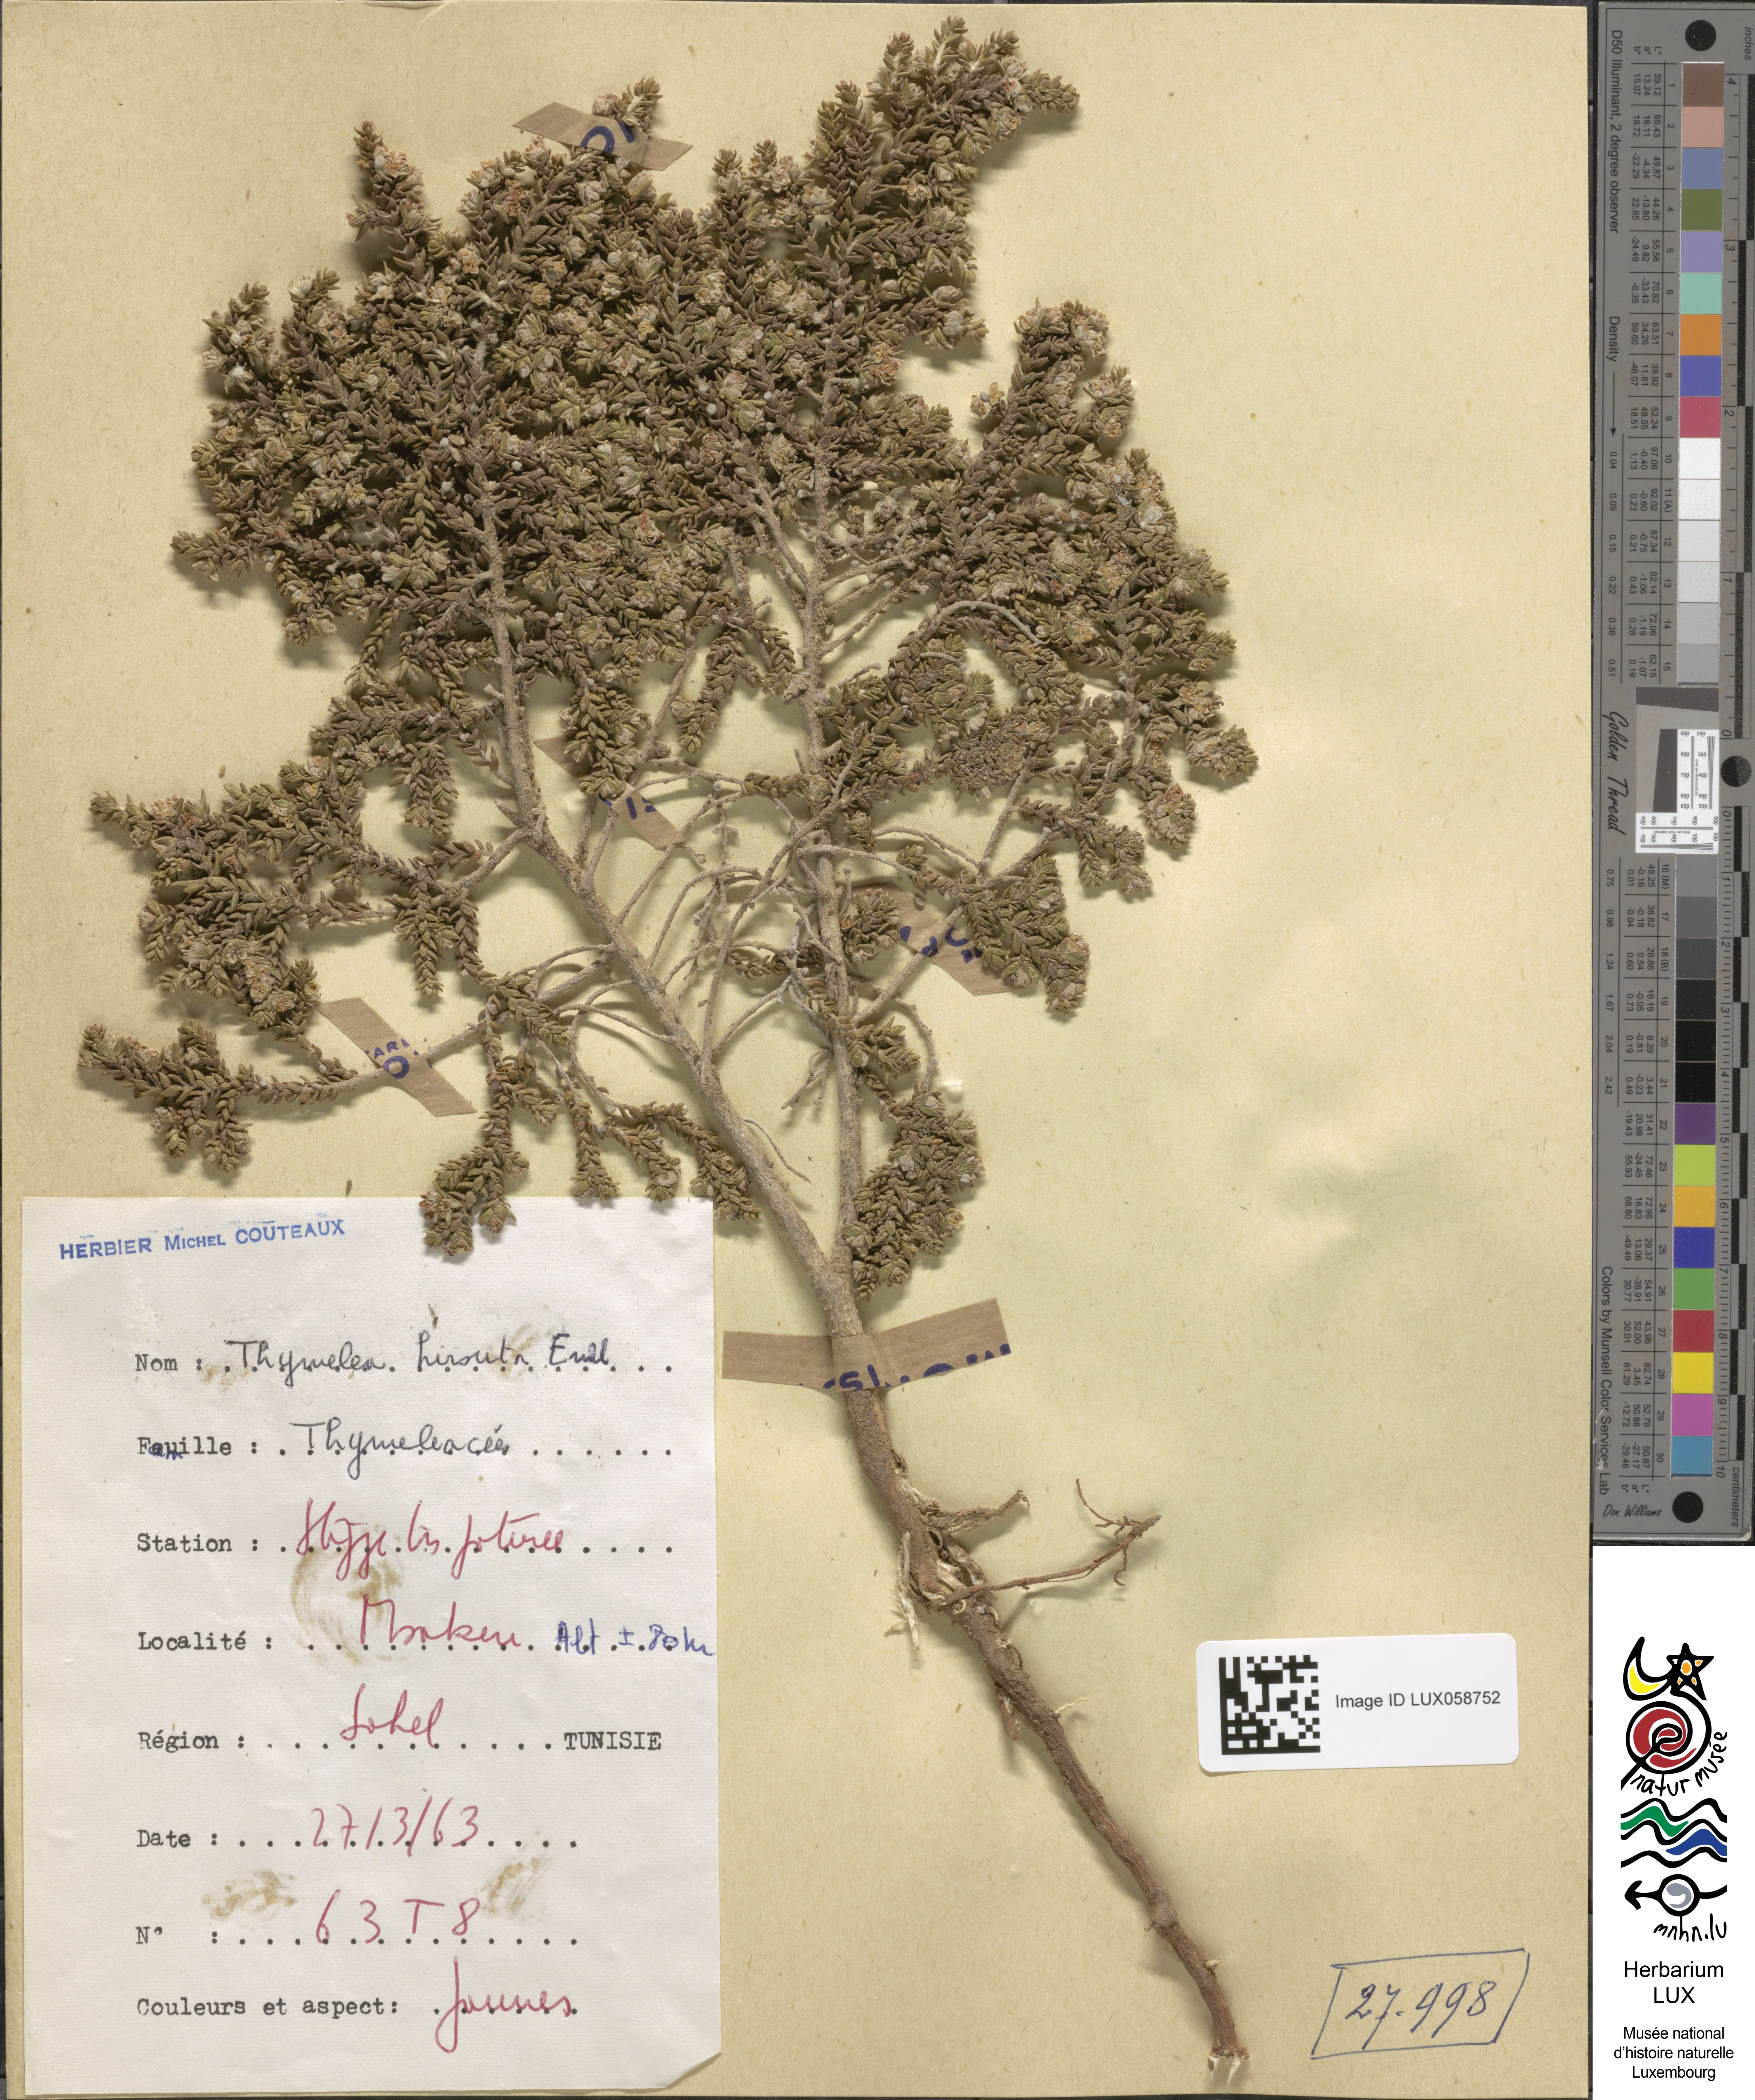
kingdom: Plantae
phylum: Tracheophyta
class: Magnoliopsida
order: Malvales
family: Thymelaeaceae
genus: Thymelaea
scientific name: Thymelaea hirsuta
